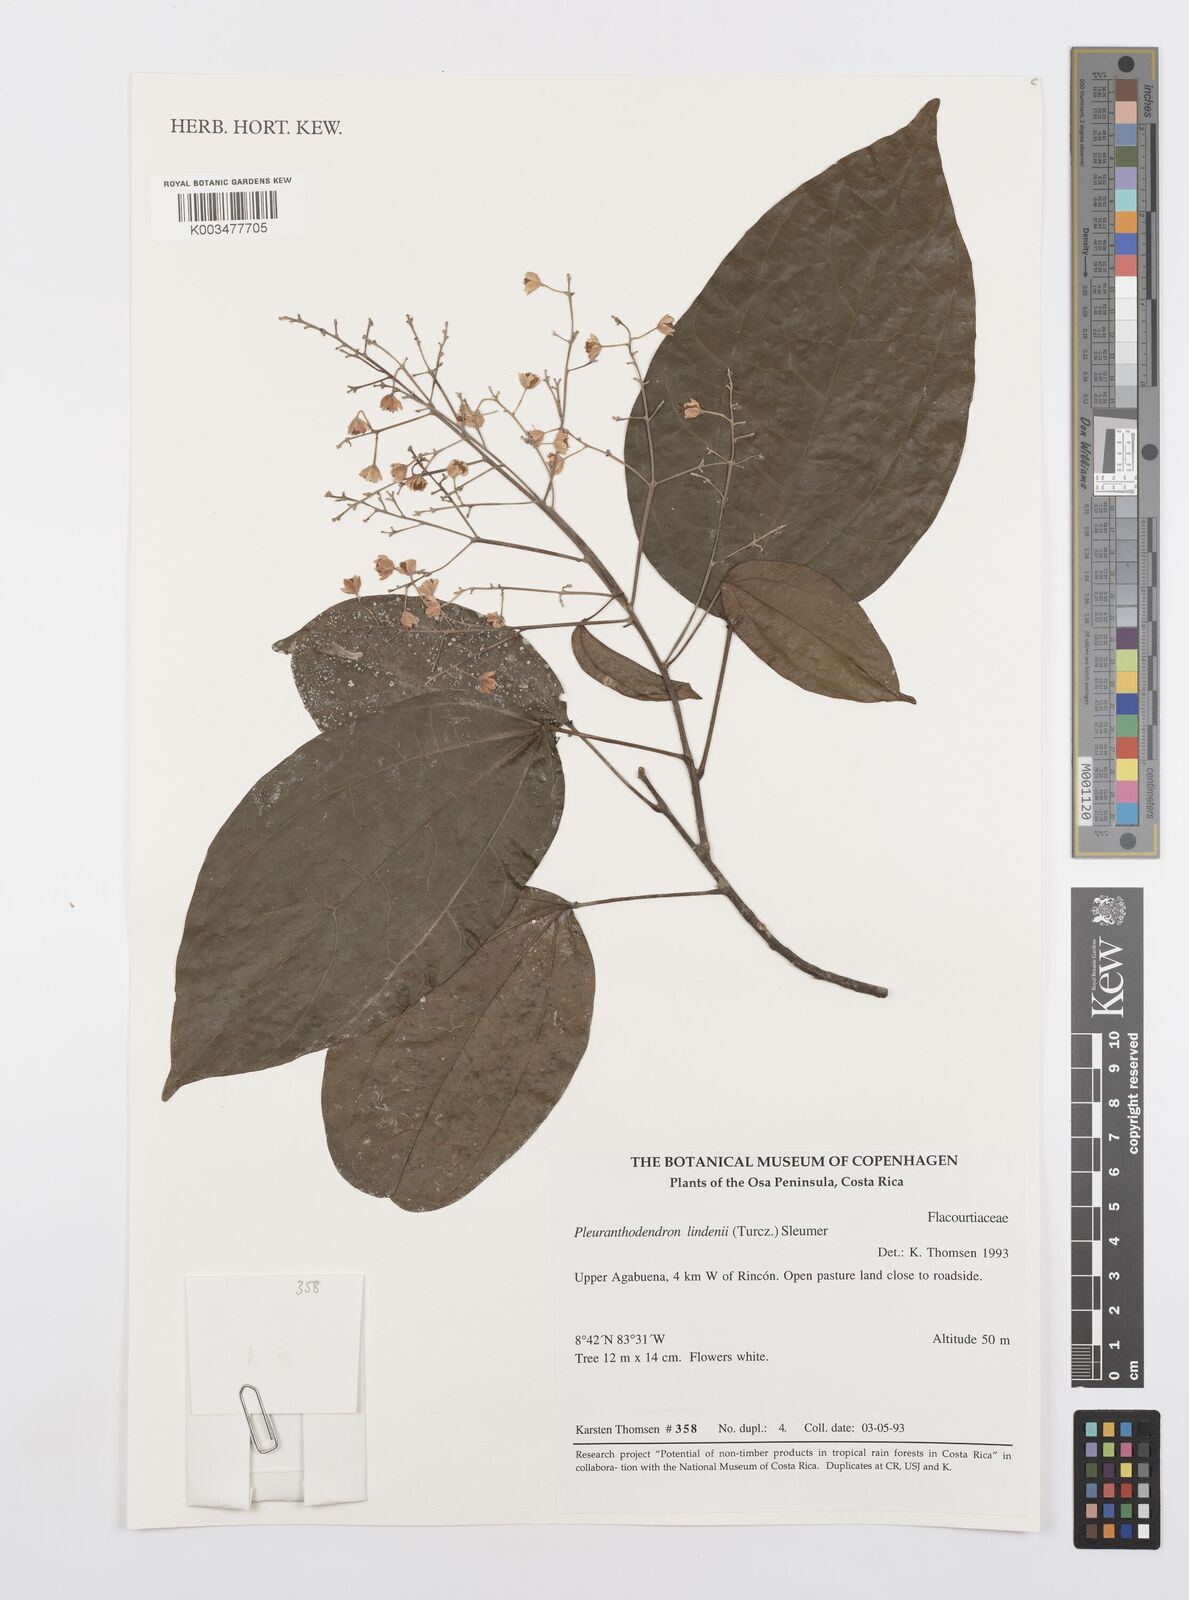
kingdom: Plantae
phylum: Tracheophyta
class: Magnoliopsida
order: Malpighiales
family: Salicaceae
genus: Pleuranthodendron
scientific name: Pleuranthodendron lindenii
